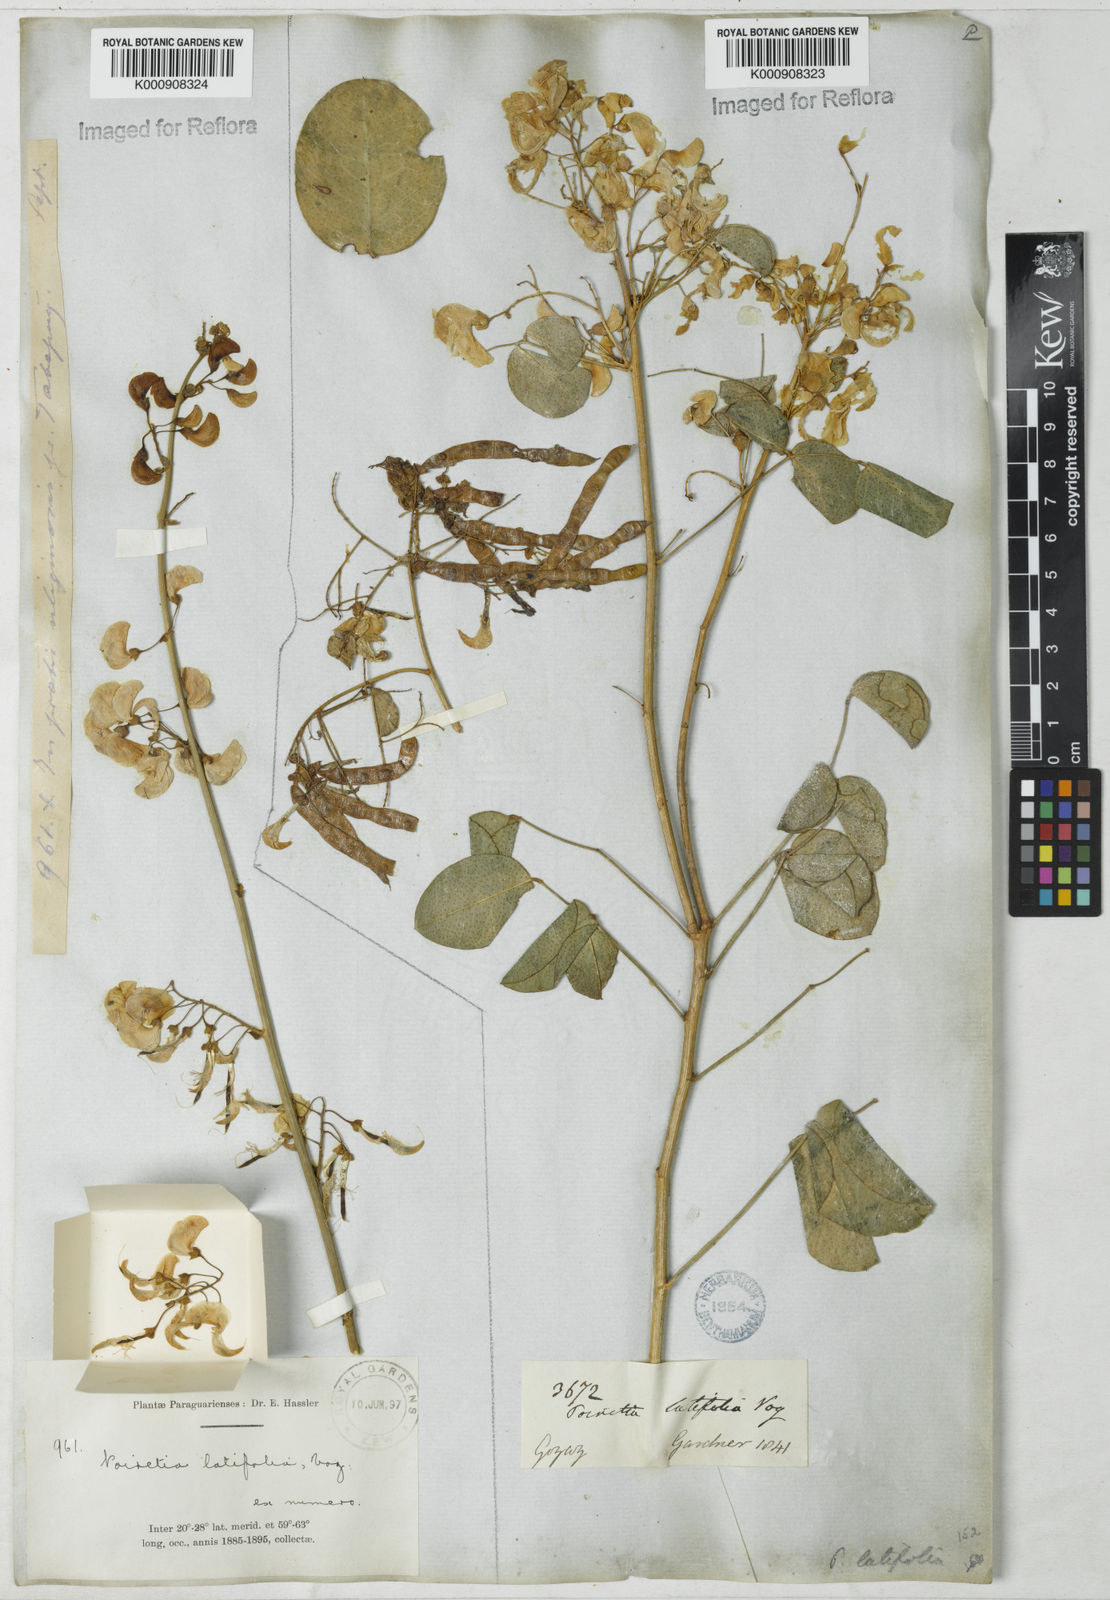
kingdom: Plantae
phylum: Tracheophyta
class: Magnoliopsida
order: Fabales
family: Fabaceae
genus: Poiretia
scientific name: Poiretia latifolia
